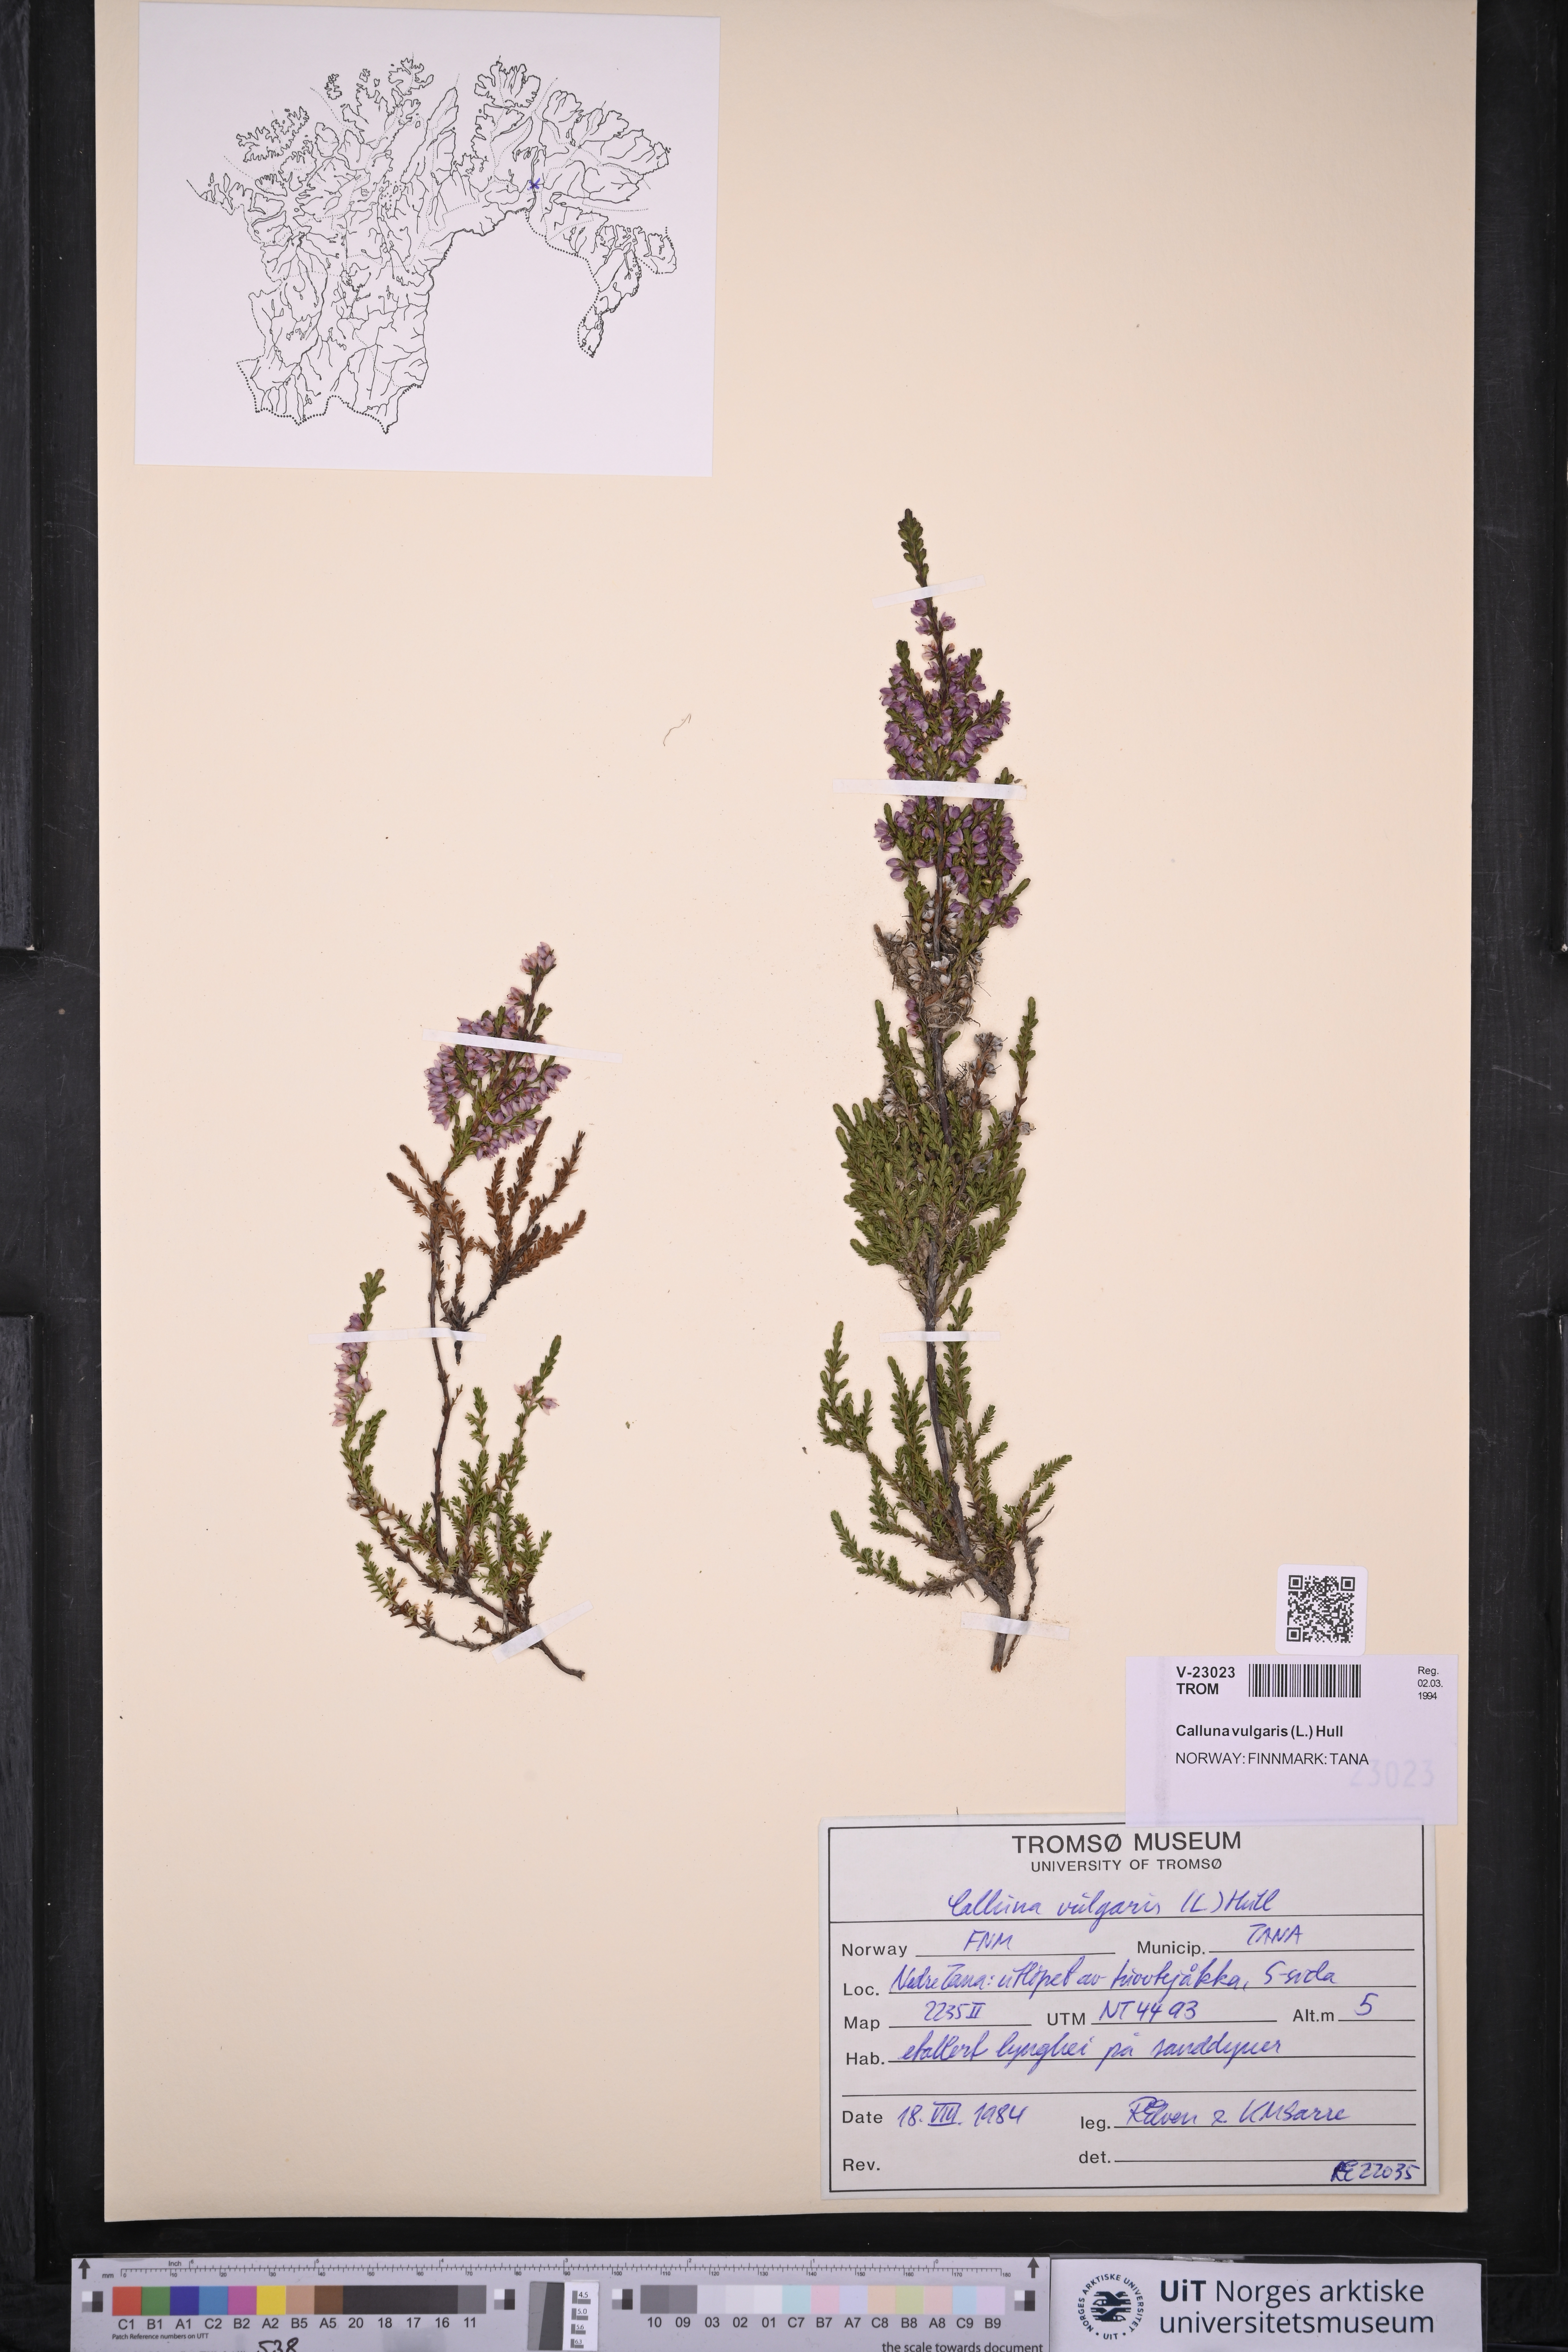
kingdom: Plantae
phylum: Tracheophyta
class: Magnoliopsida
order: Ericales
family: Ericaceae
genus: Calluna
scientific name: Calluna vulgaris
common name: Heather
